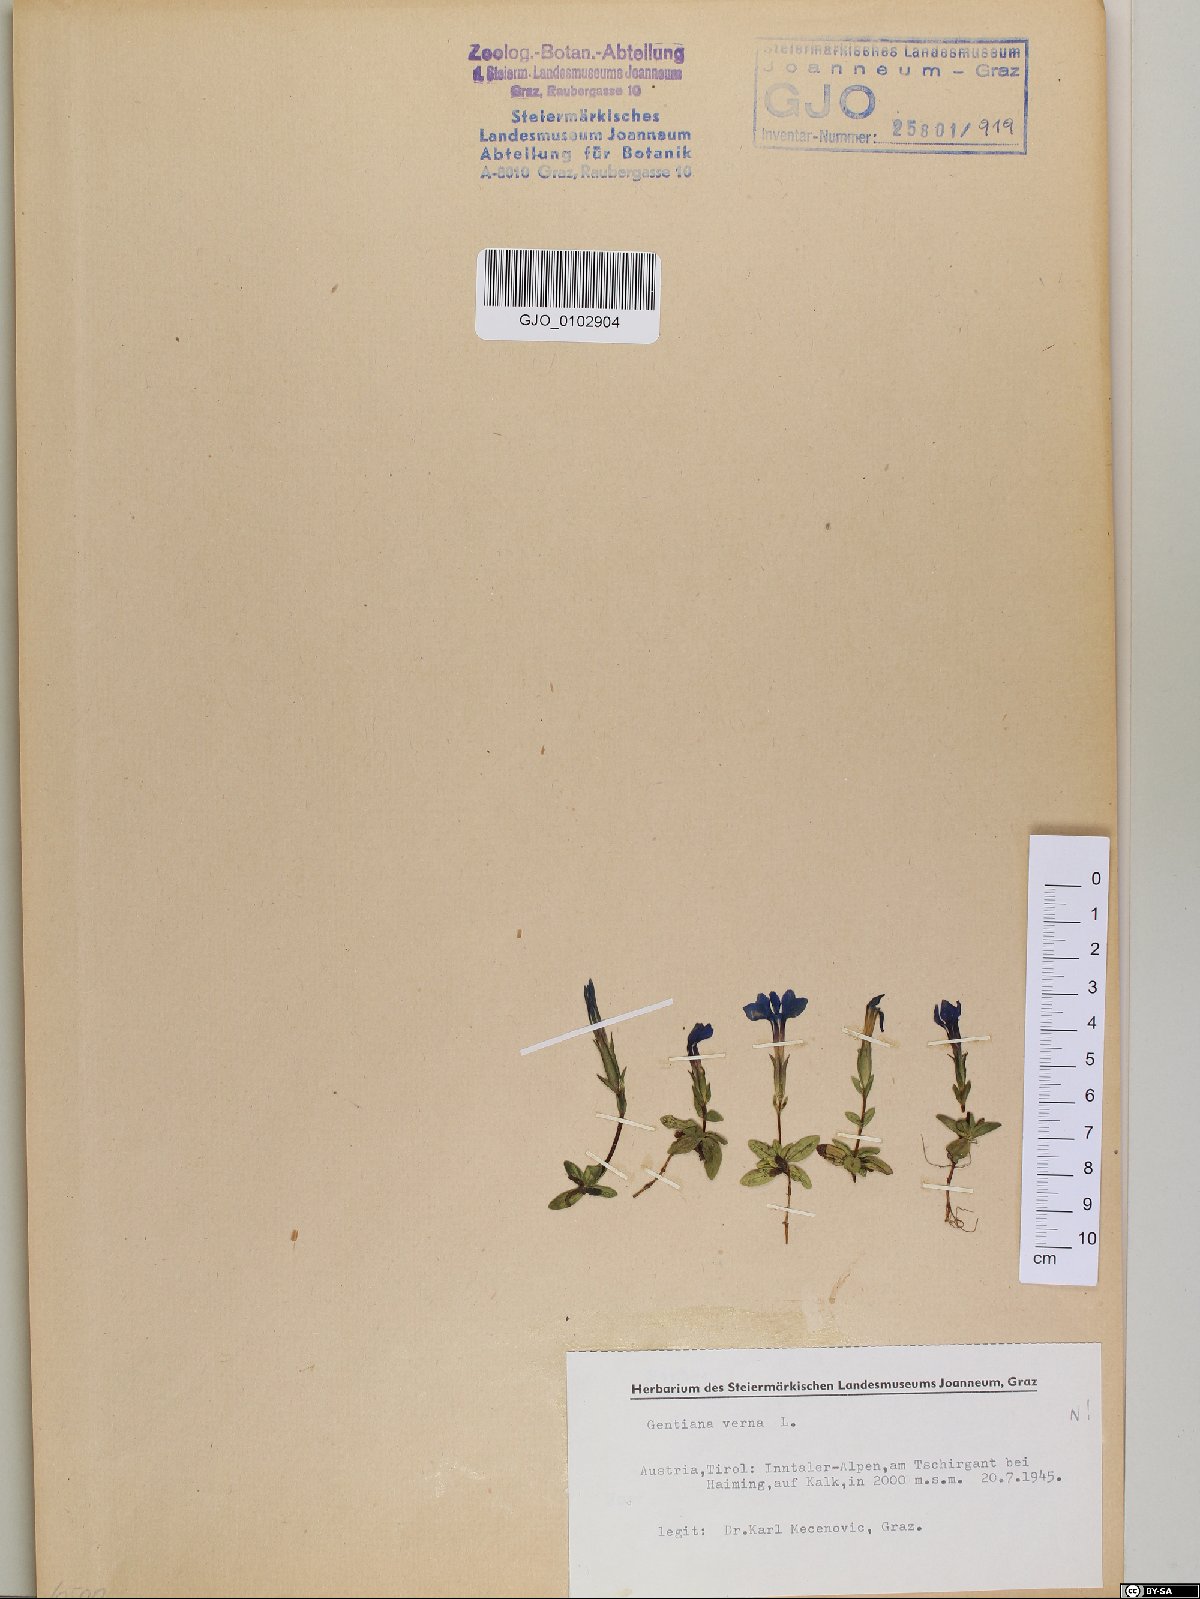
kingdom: Plantae
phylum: Tracheophyta
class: Magnoliopsida
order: Gentianales
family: Gentianaceae
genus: Gentiana
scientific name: Gentiana verna
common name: Spring gentian
